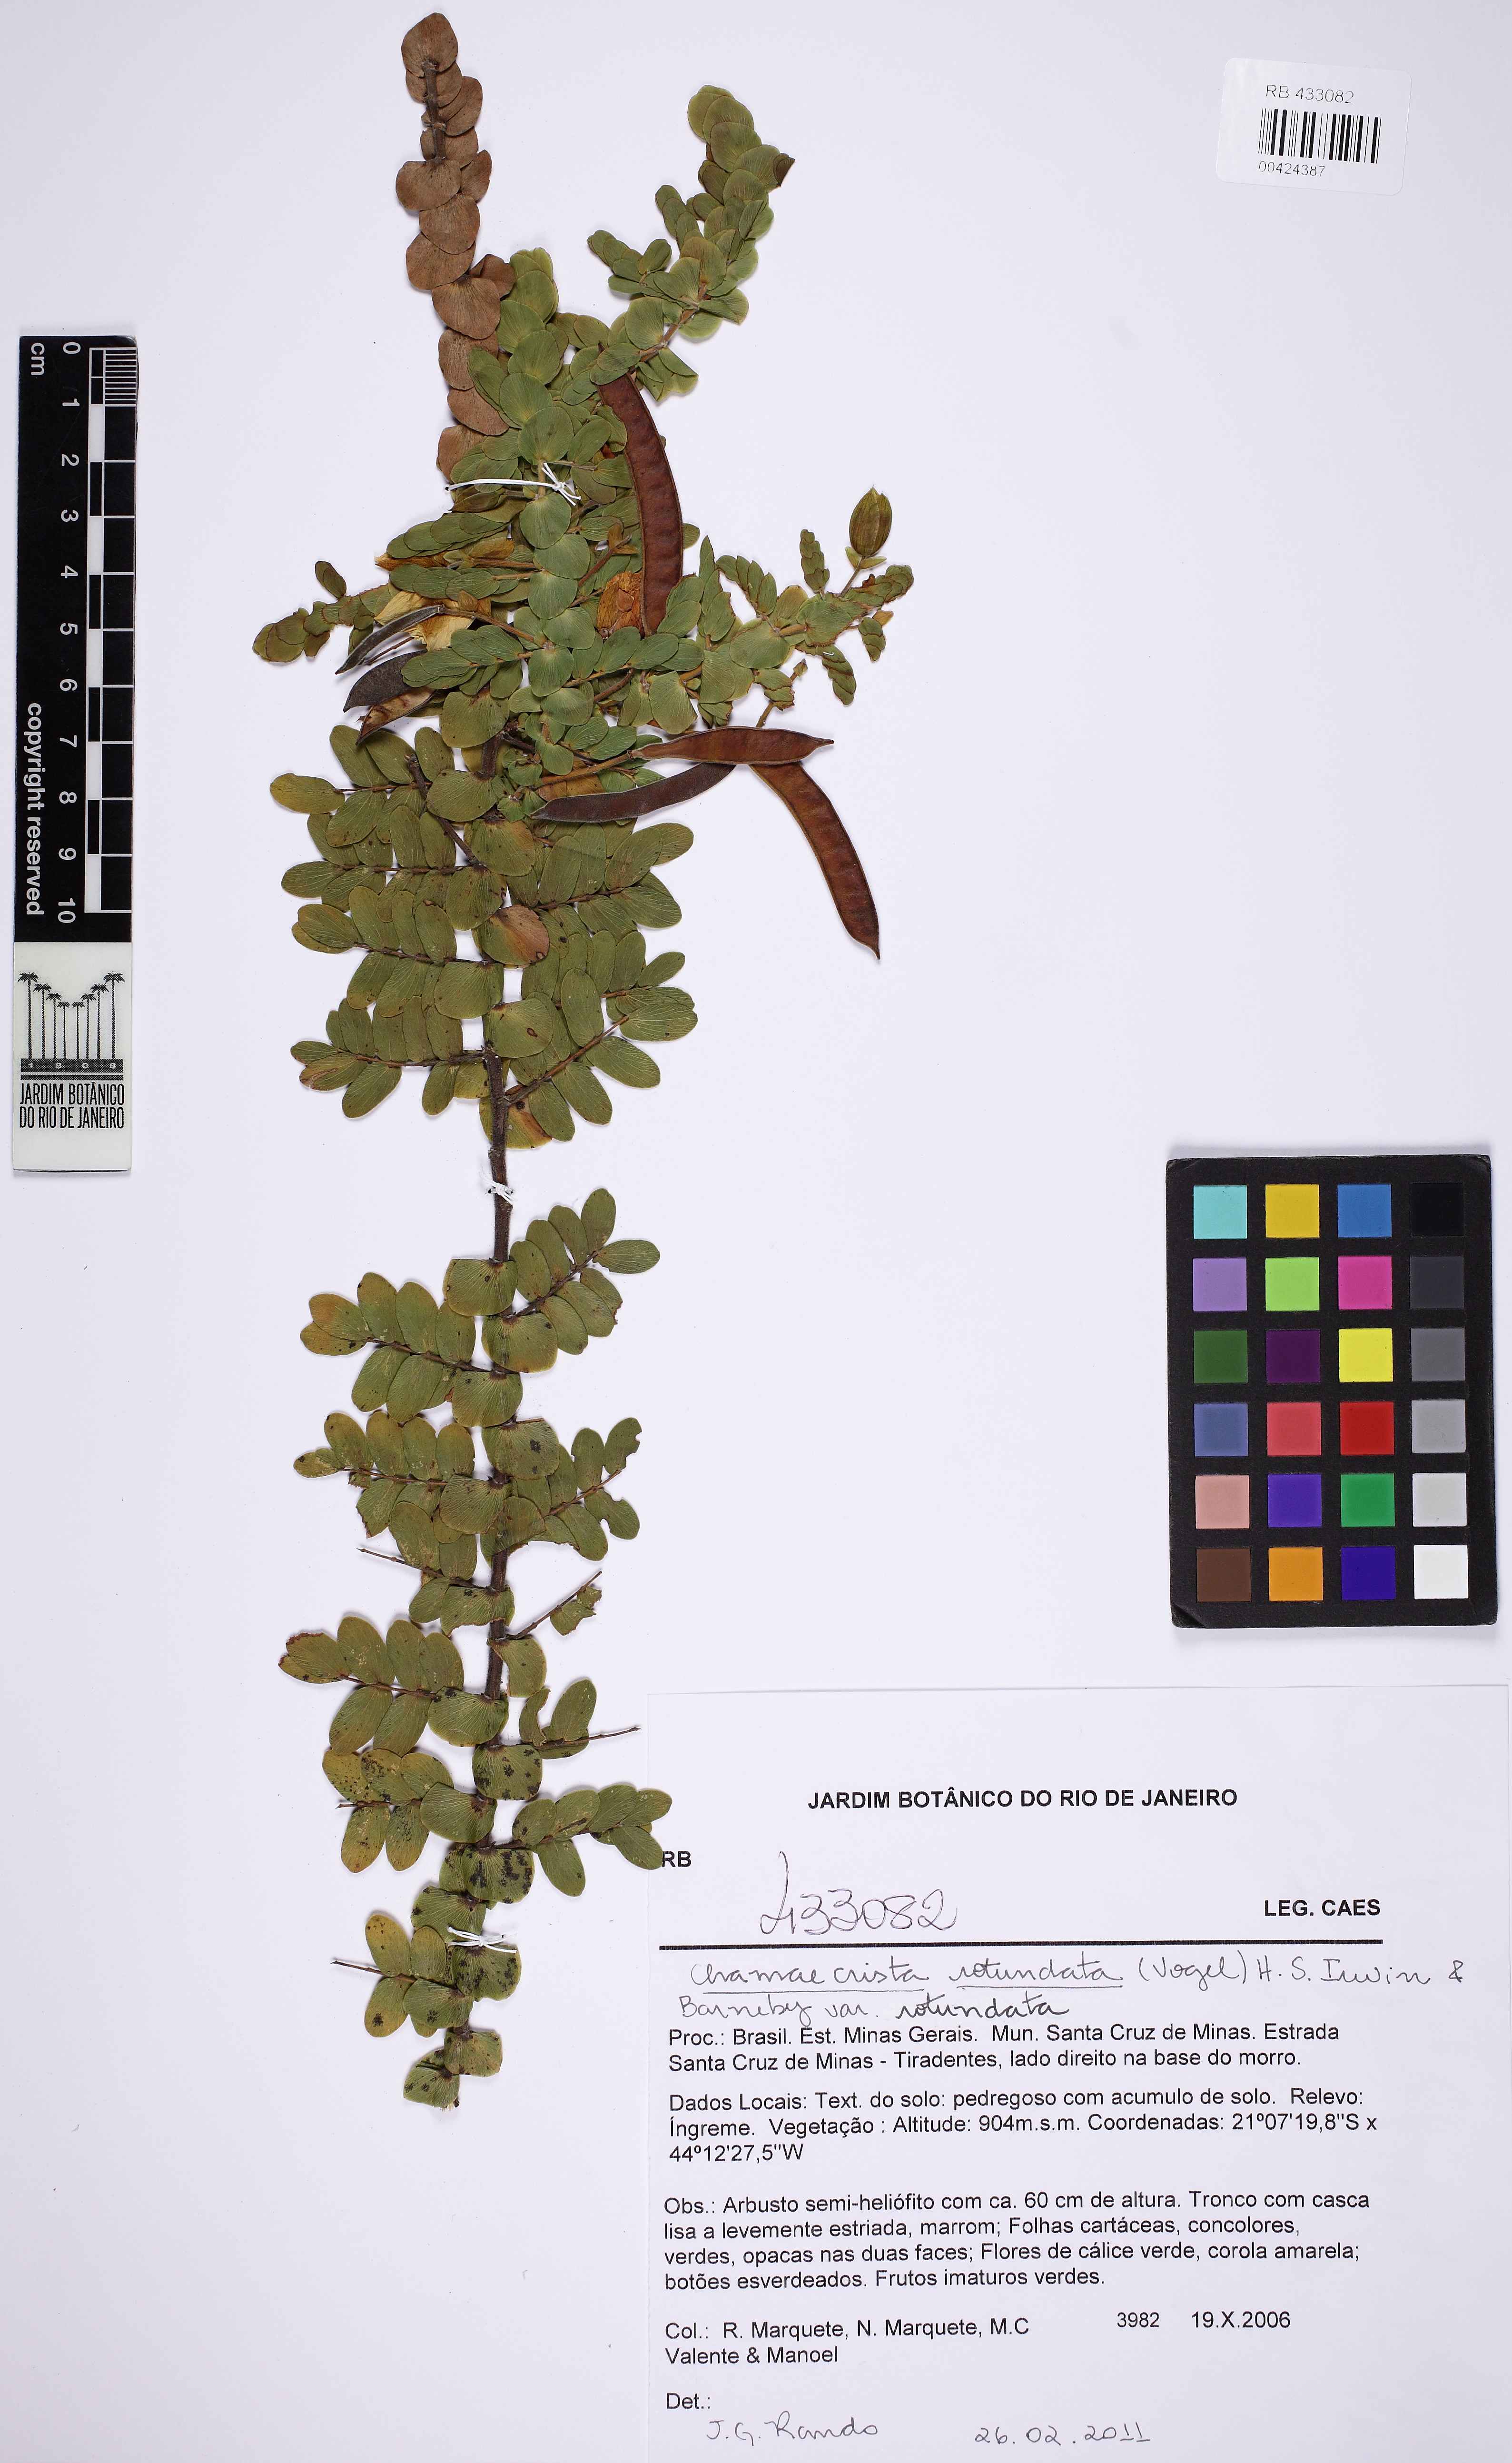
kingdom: Plantae
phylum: Tracheophyta
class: Magnoliopsida
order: Fabales
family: Fabaceae
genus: Chamaecrista
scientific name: Chamaecrista rotundata
